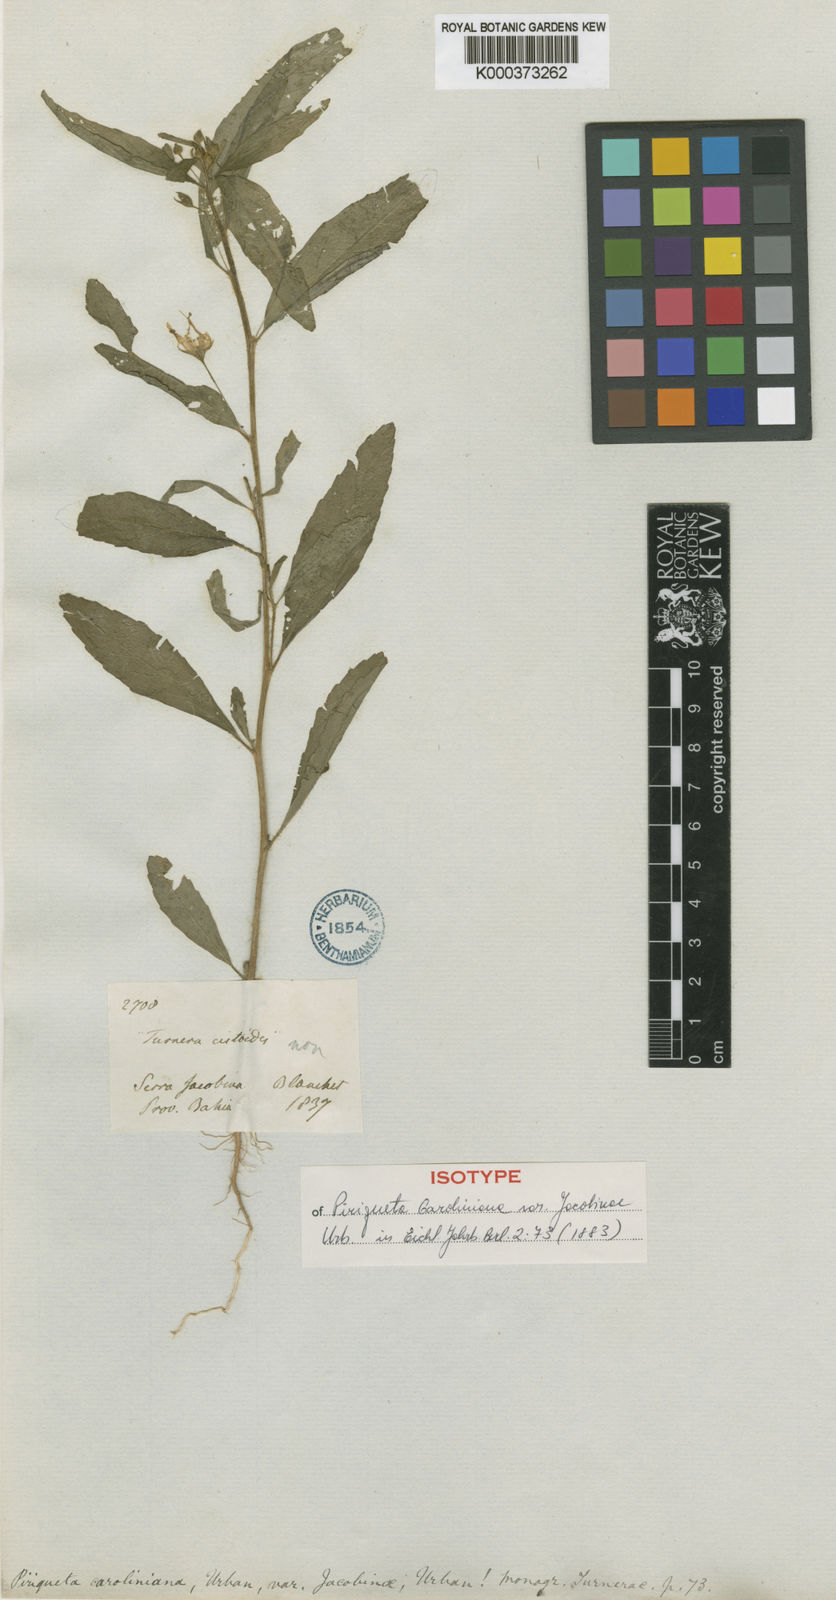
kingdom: Plantae
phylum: Tracheophyta
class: Magnoliopsida
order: Malpighiales
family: Turneraceae
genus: Piriqueta
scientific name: Piriqueta cistoides
